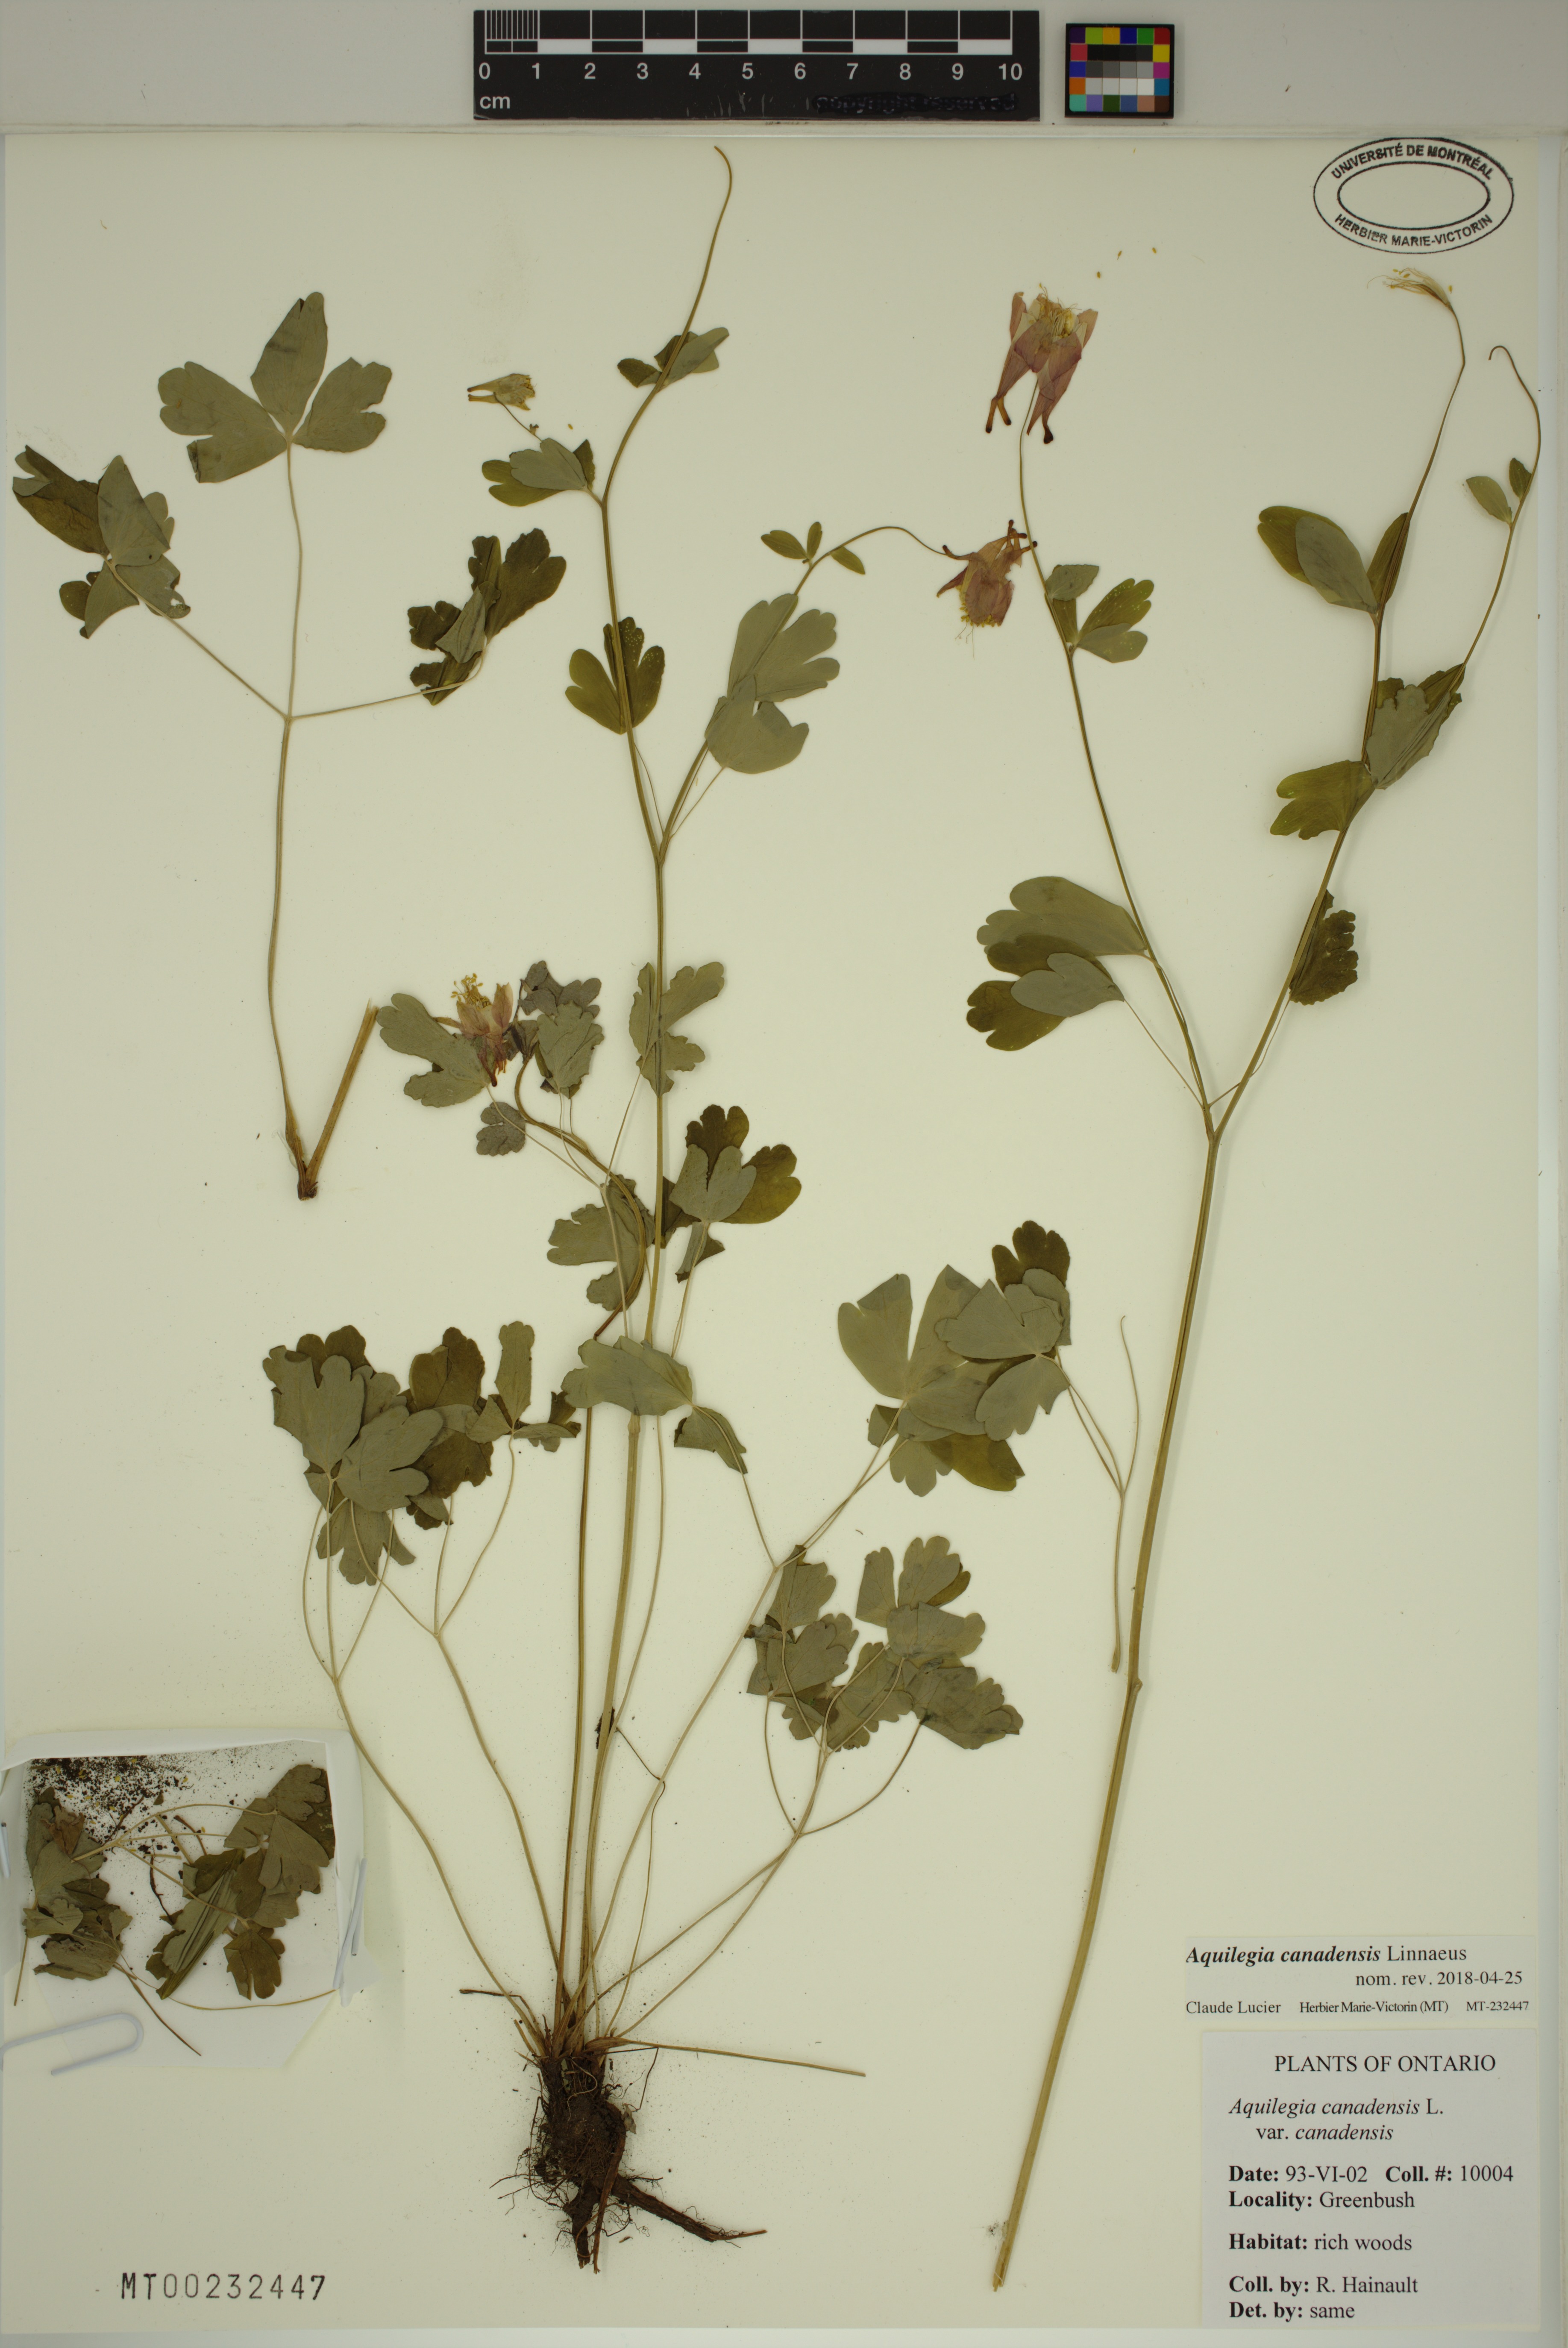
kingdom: Plantae
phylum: Tracheophyta
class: Magnoliopsida
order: Ranunculales
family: Ranunculaceae
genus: Aquilegia
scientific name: Aquilegia canadensis
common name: American columbine
